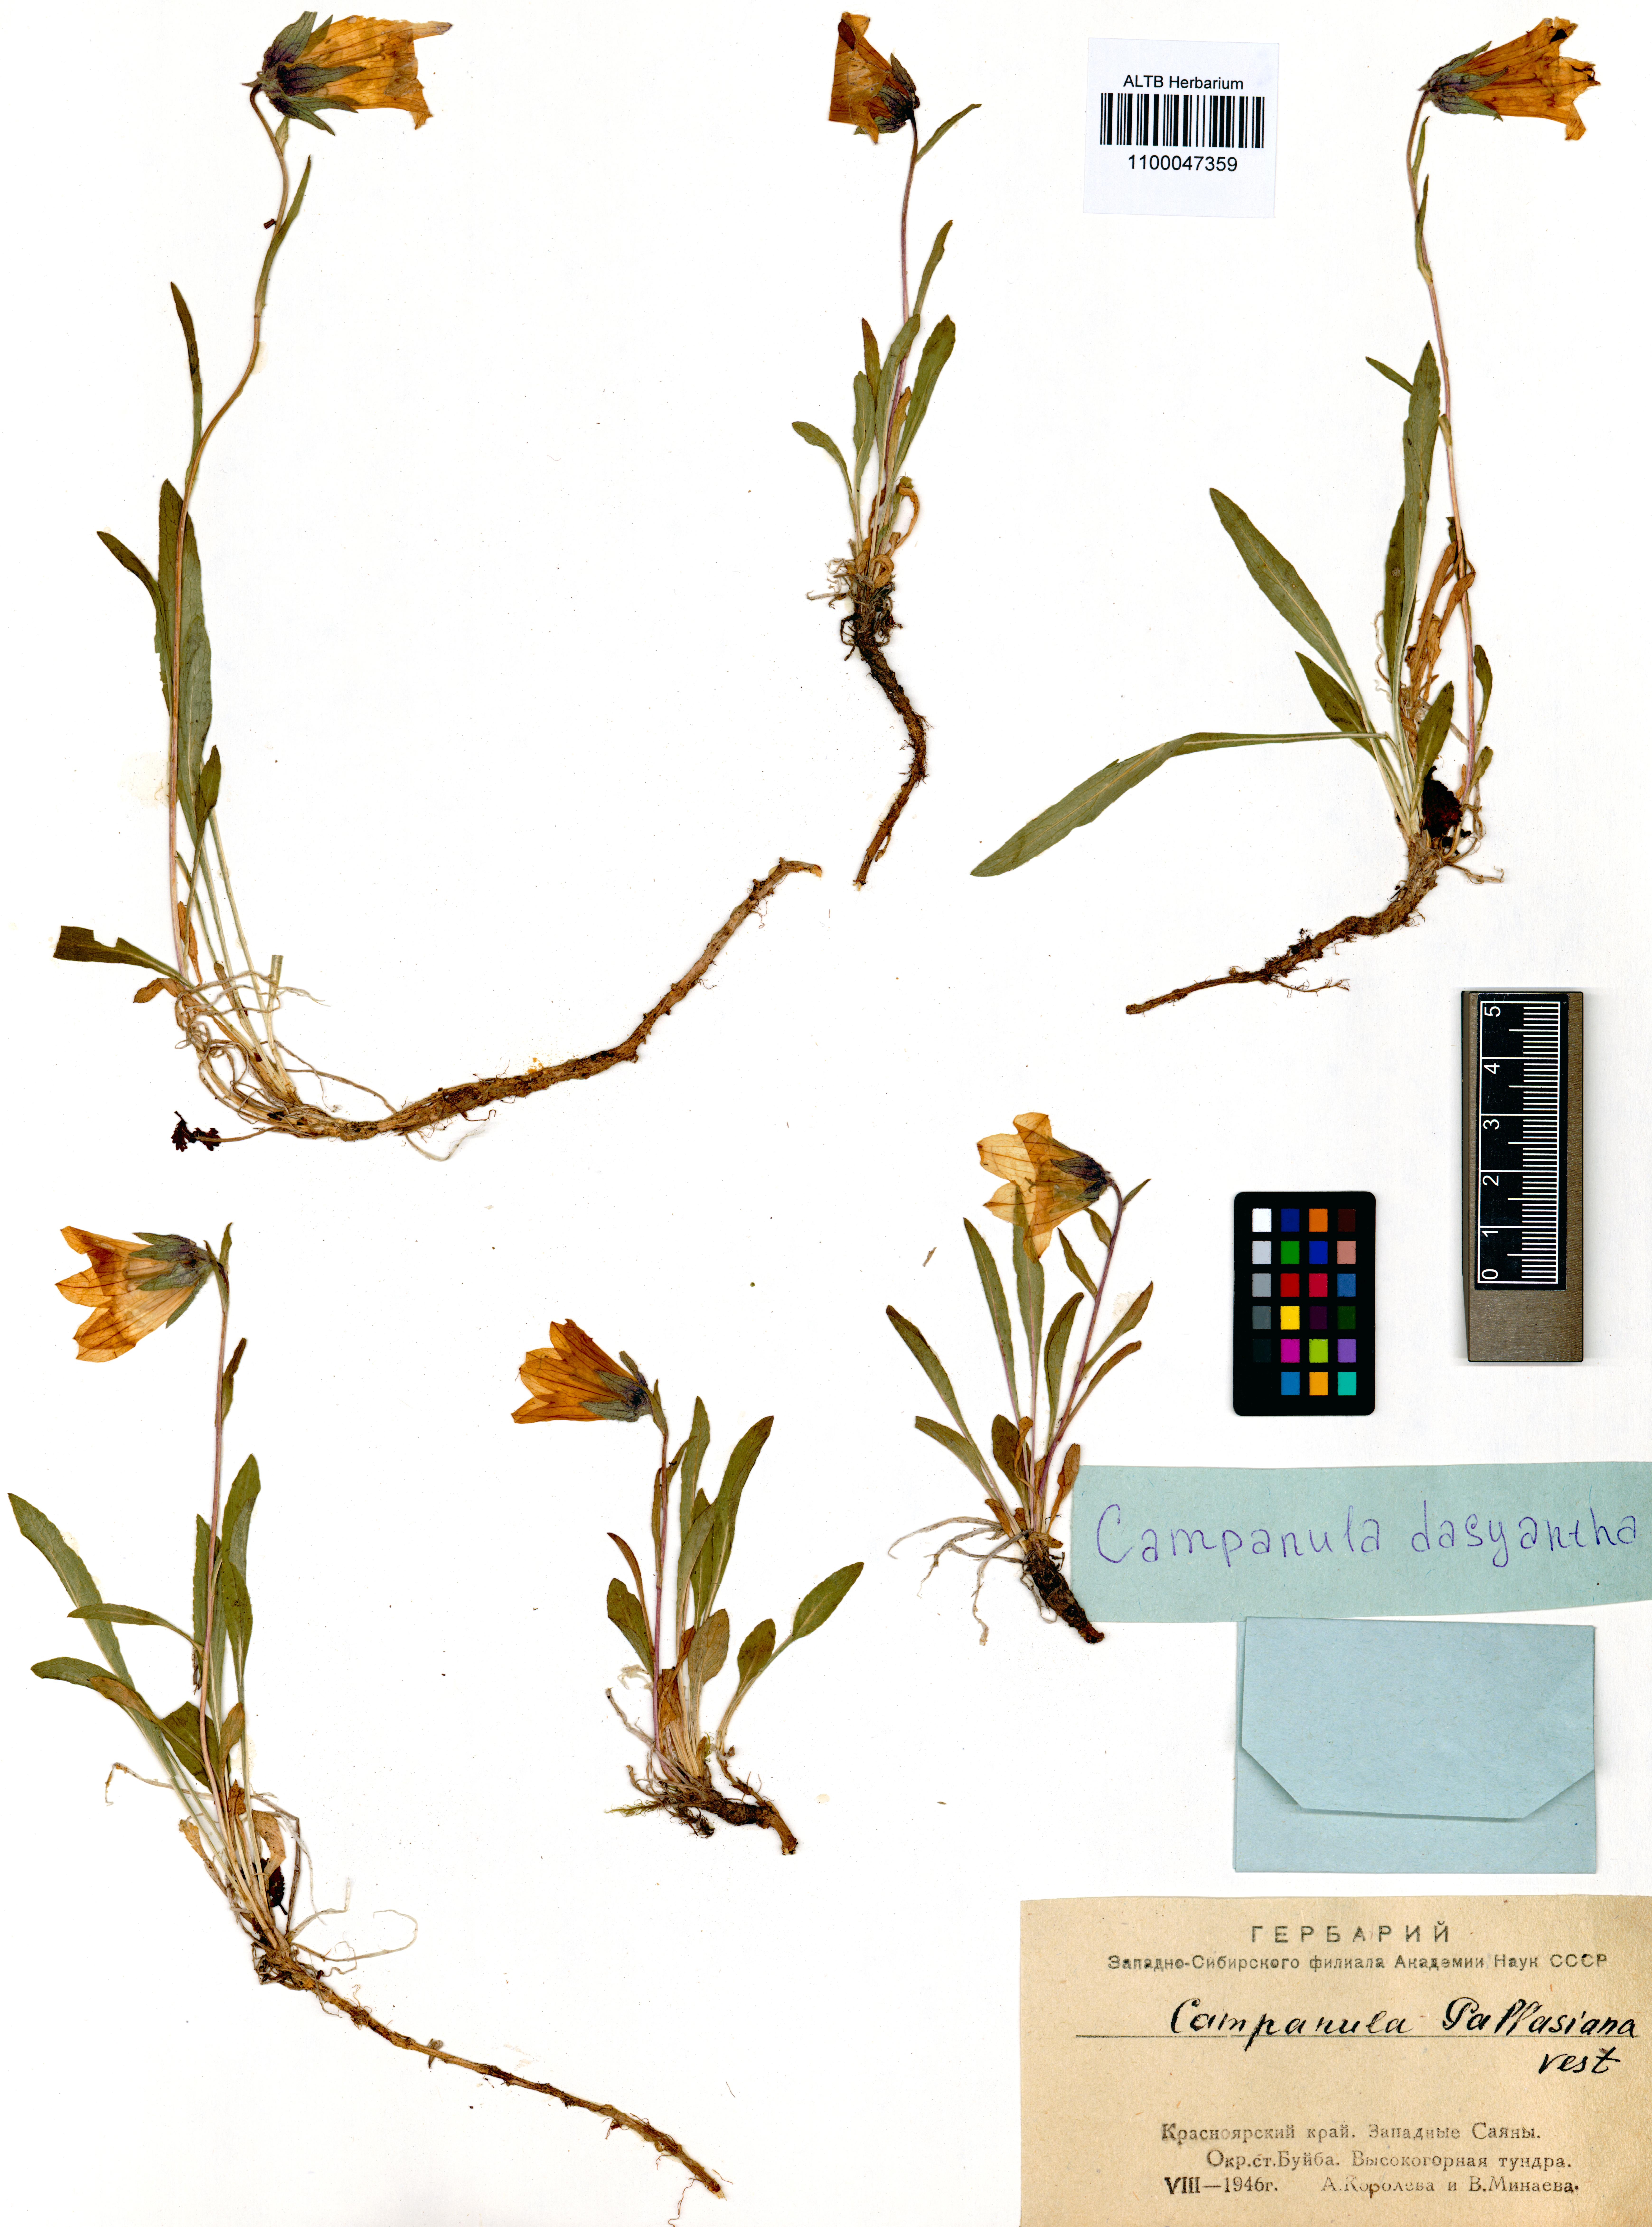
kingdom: Plantae
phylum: Tracheophyta
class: Magnoliopsida
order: Asterales
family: Campanulaceae
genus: Campanula
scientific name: Campanula dasyantha
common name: Hairyflower bellflower
